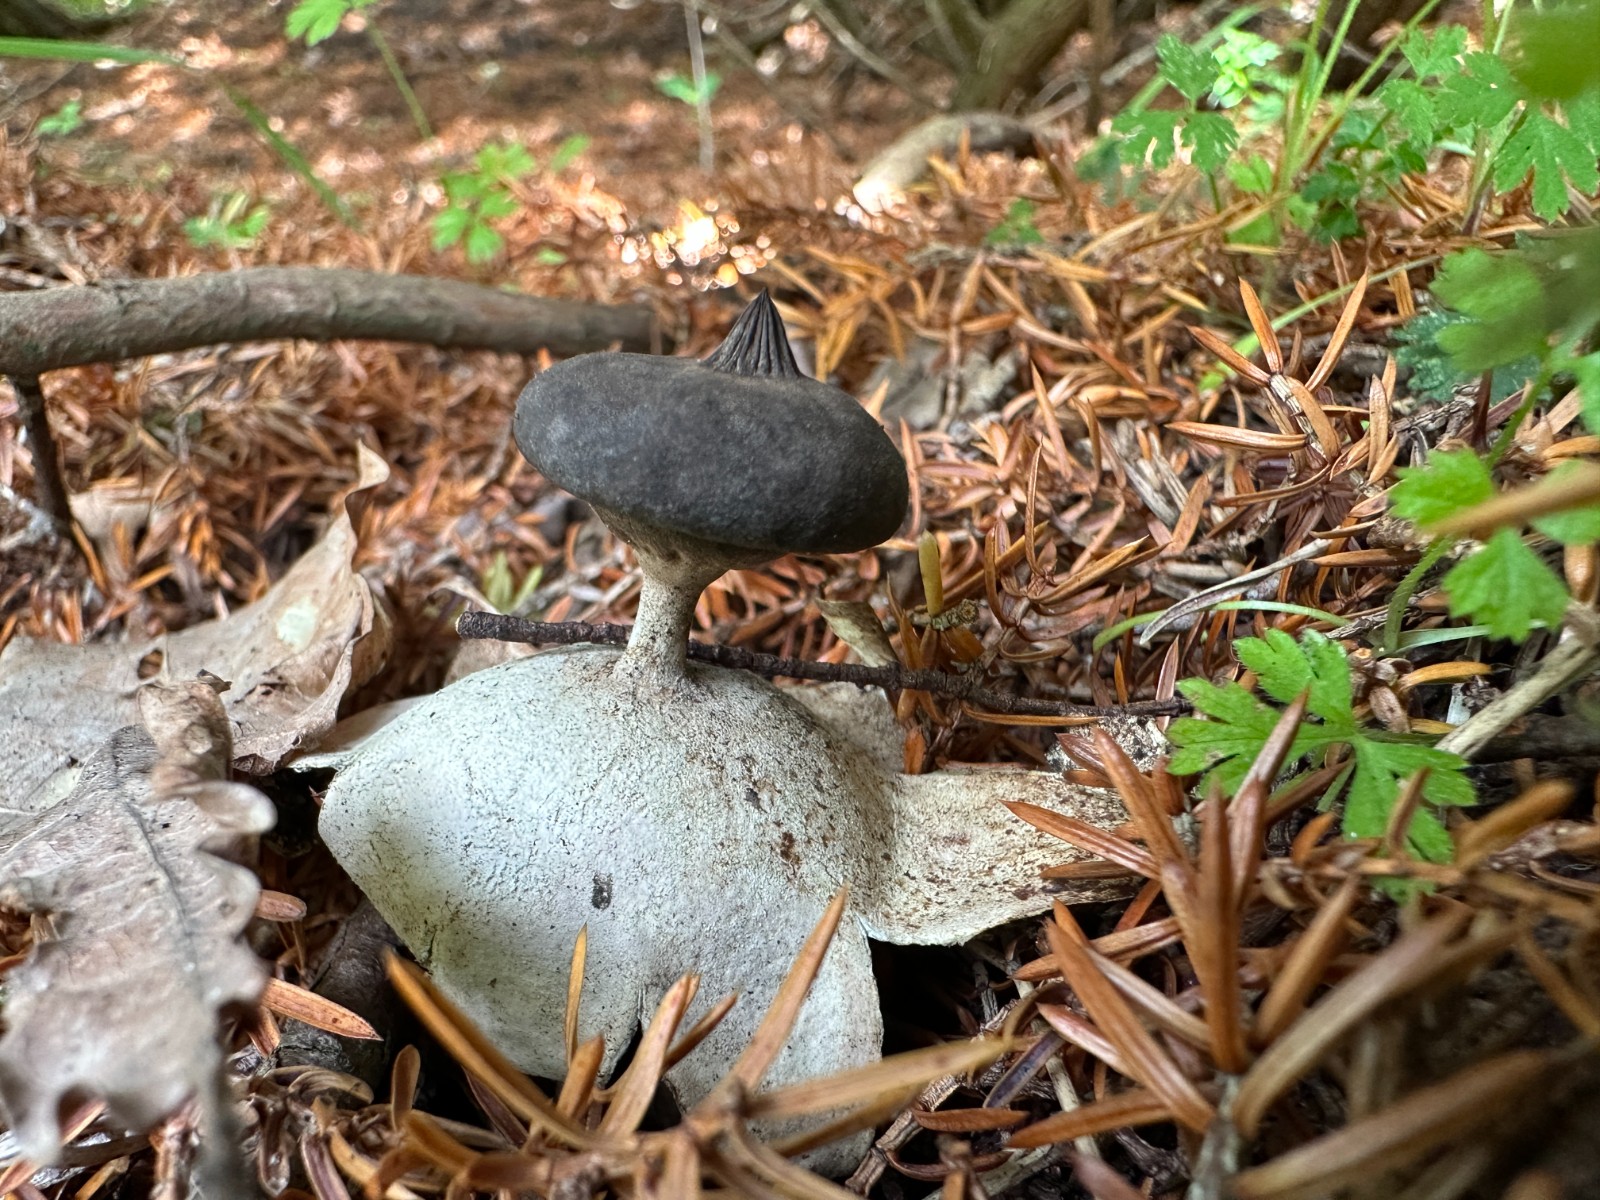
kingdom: Fungi
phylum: Basidiomycota
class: Agaricomycetes
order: Geastrales
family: Geastraceae
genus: Geastrum
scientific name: Geastrum pectinatum
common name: stilket stjernebold
